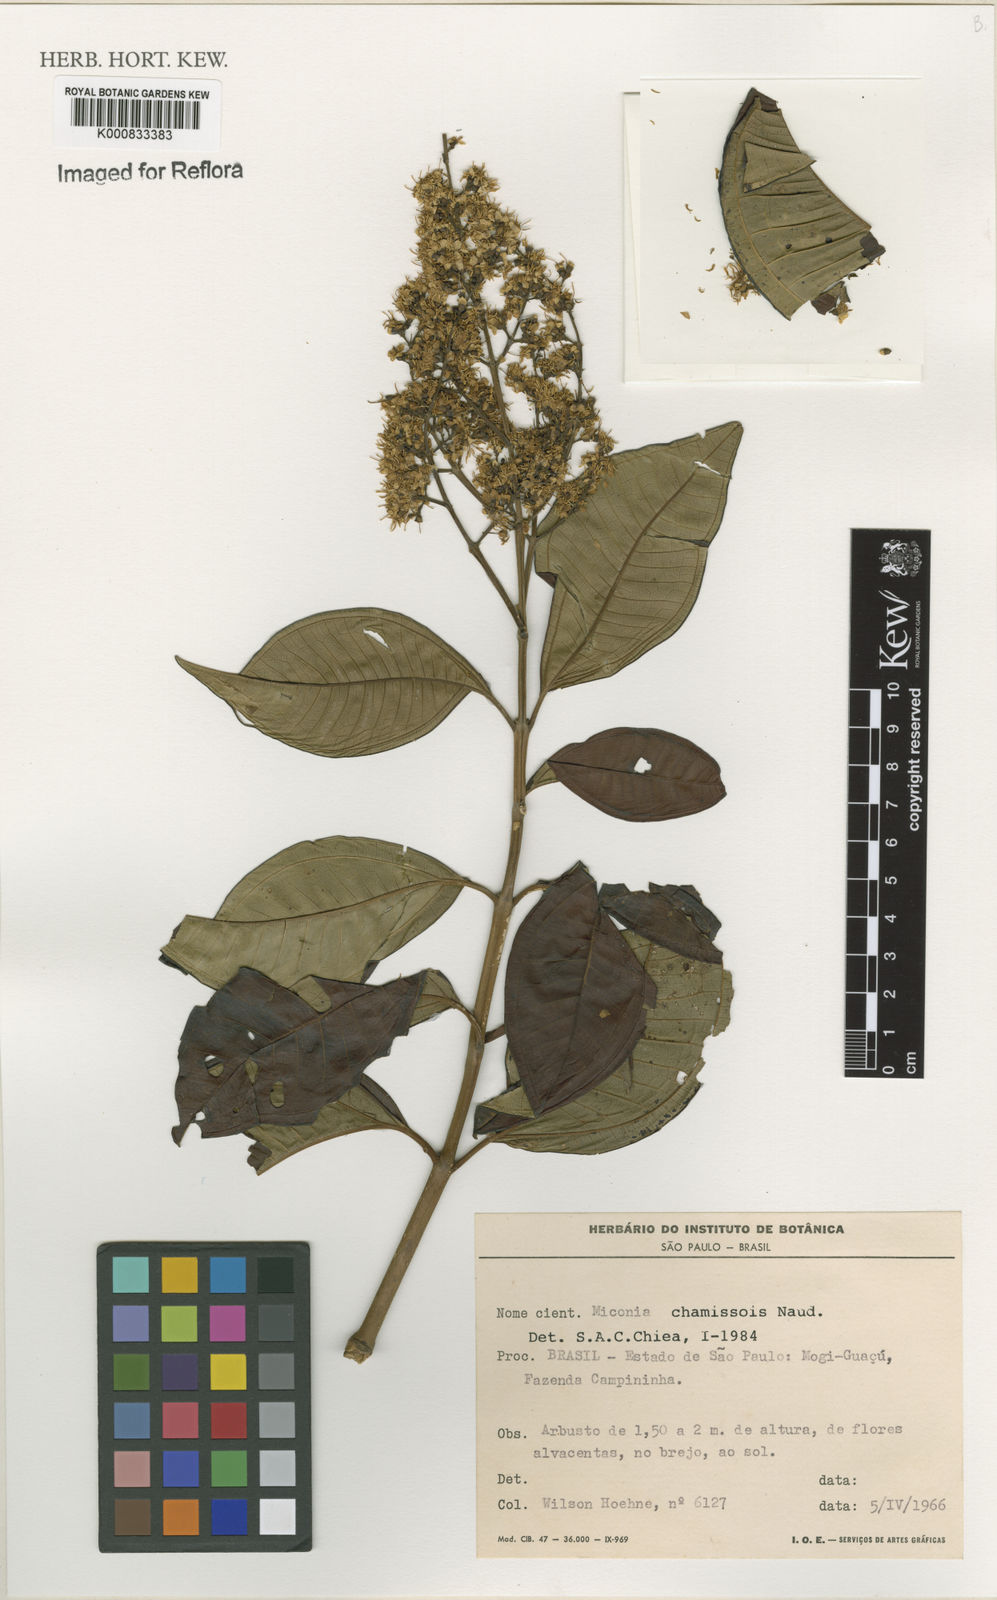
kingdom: Plantae
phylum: Tracheophyta
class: Magnoliopsida
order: Myrtales
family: Melastomataceae
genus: Miconia
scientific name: Miconia chamissois
